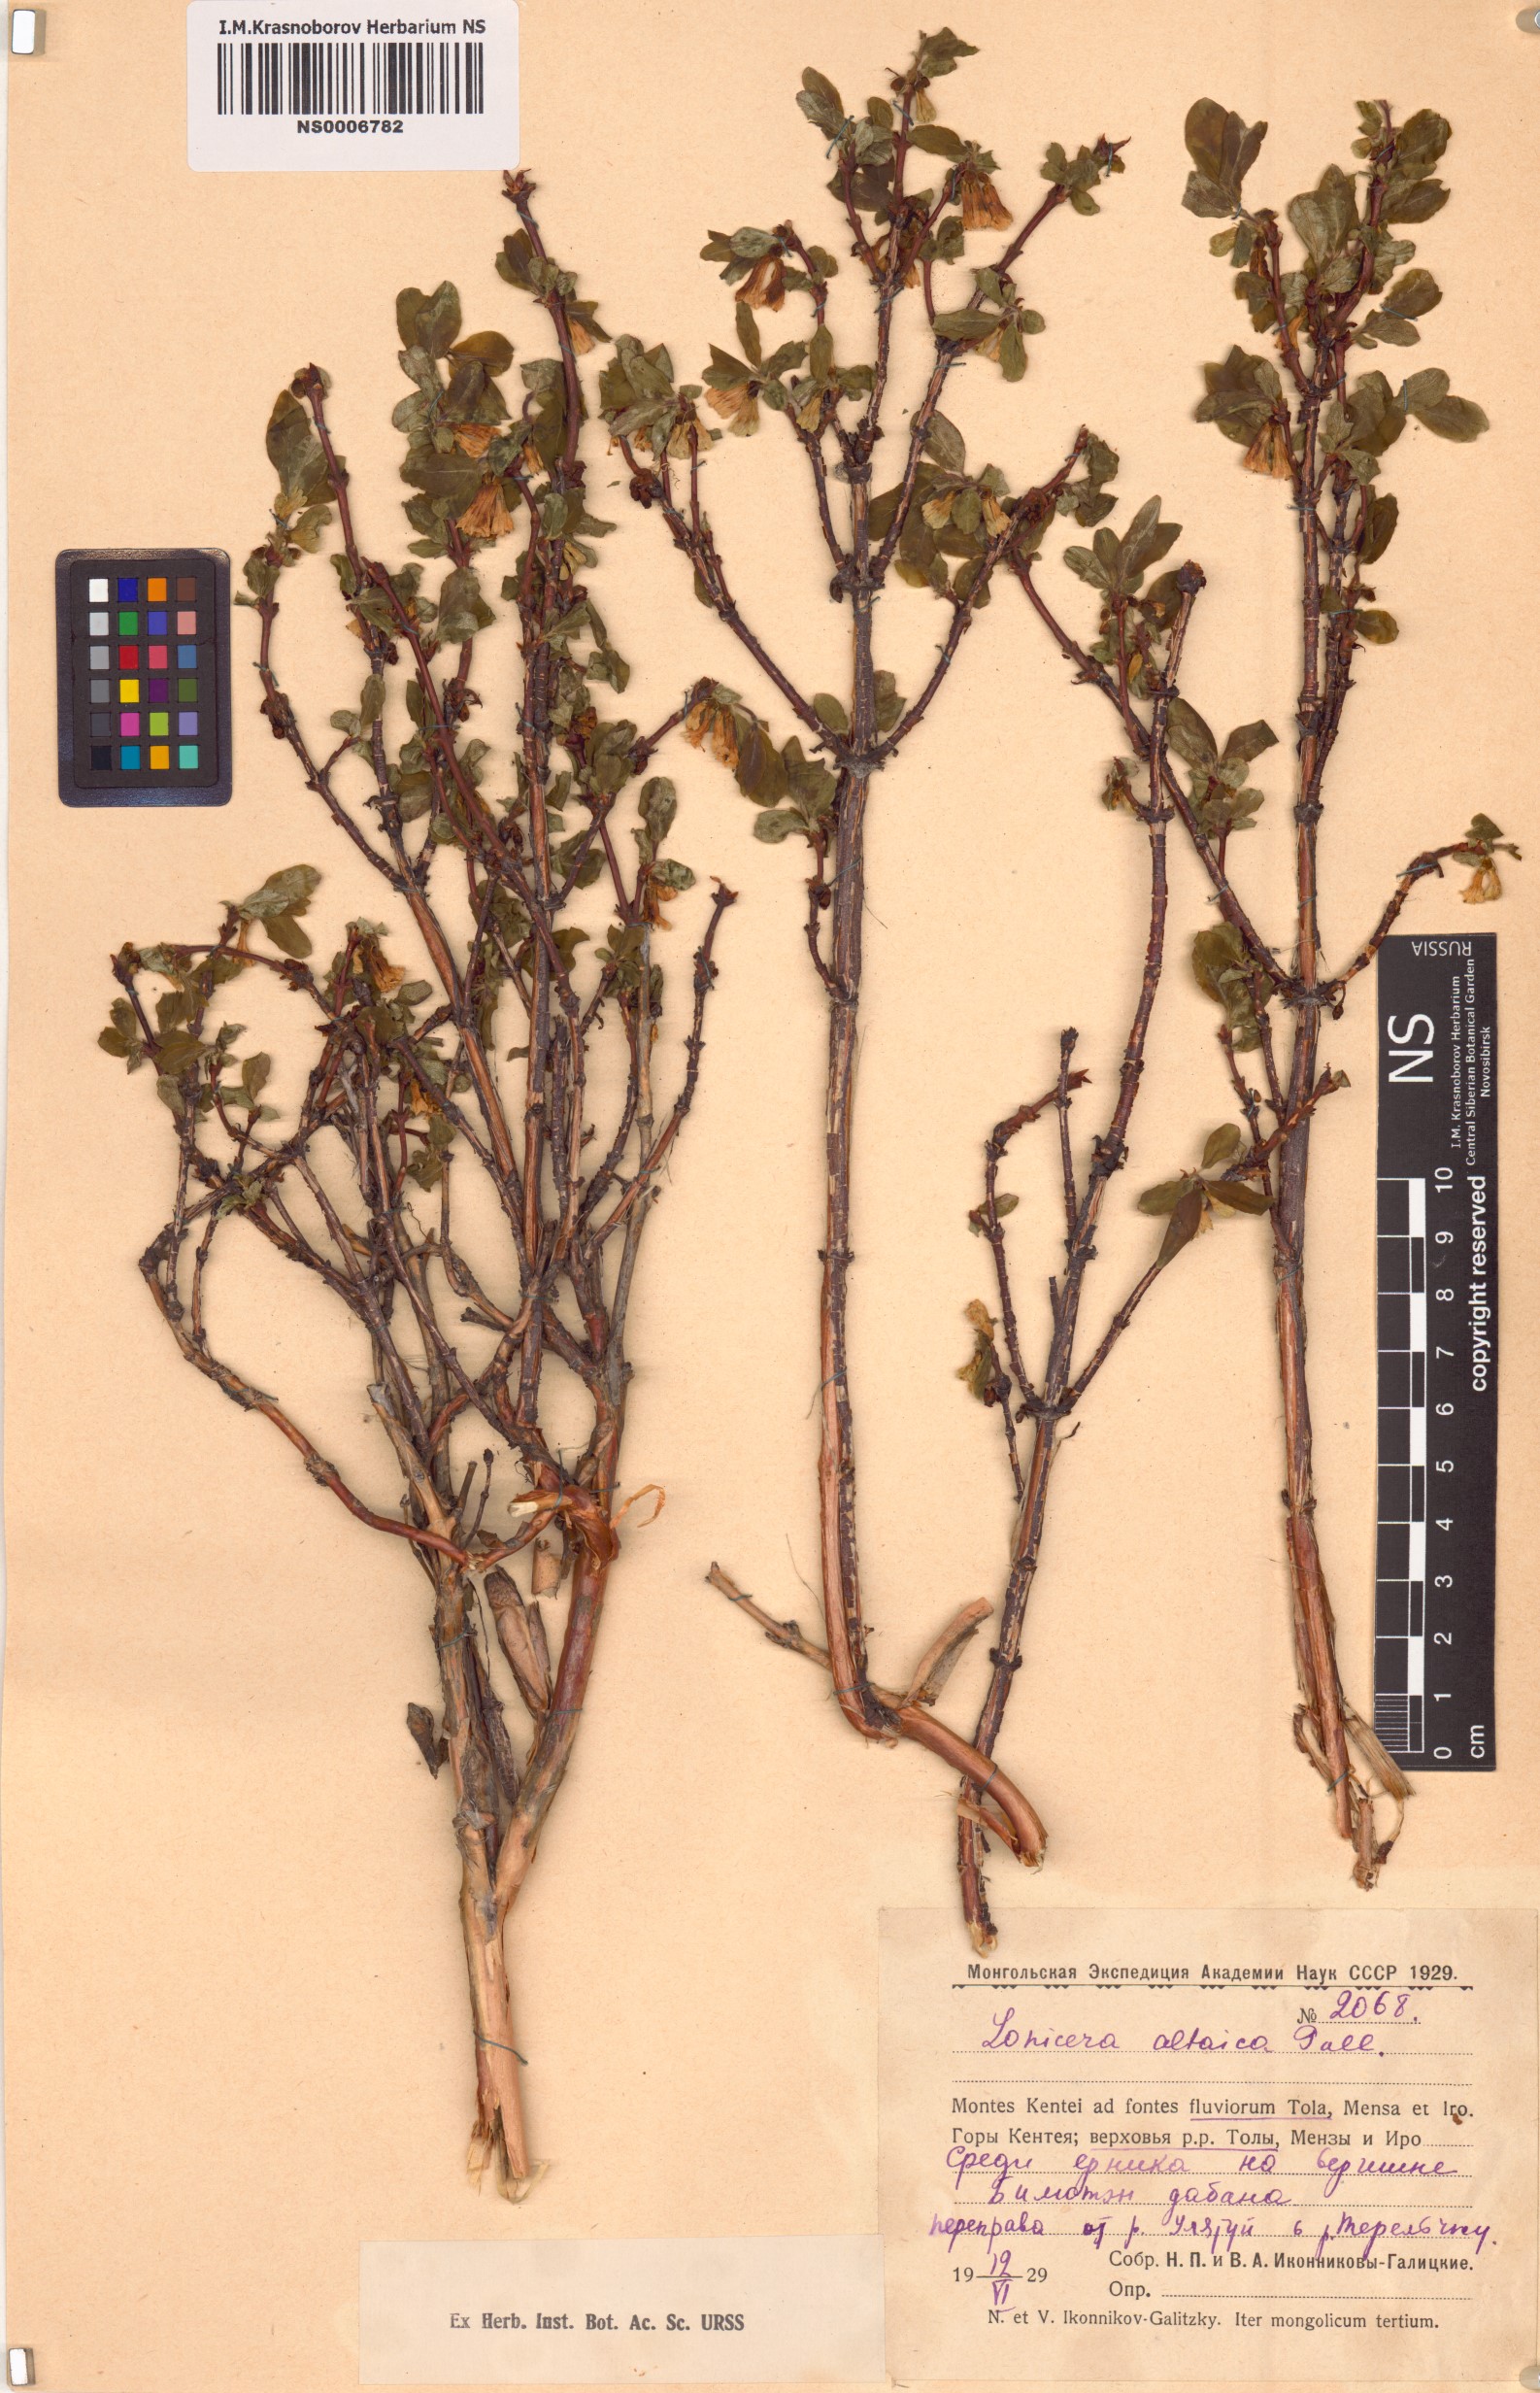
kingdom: Plantae
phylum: Tracheophyta
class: Magnoliopsida
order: Dipsacales
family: Caprifoliaceae
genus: Lonicera
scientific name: Lonicera caerulea
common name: Blue honeysuckle
